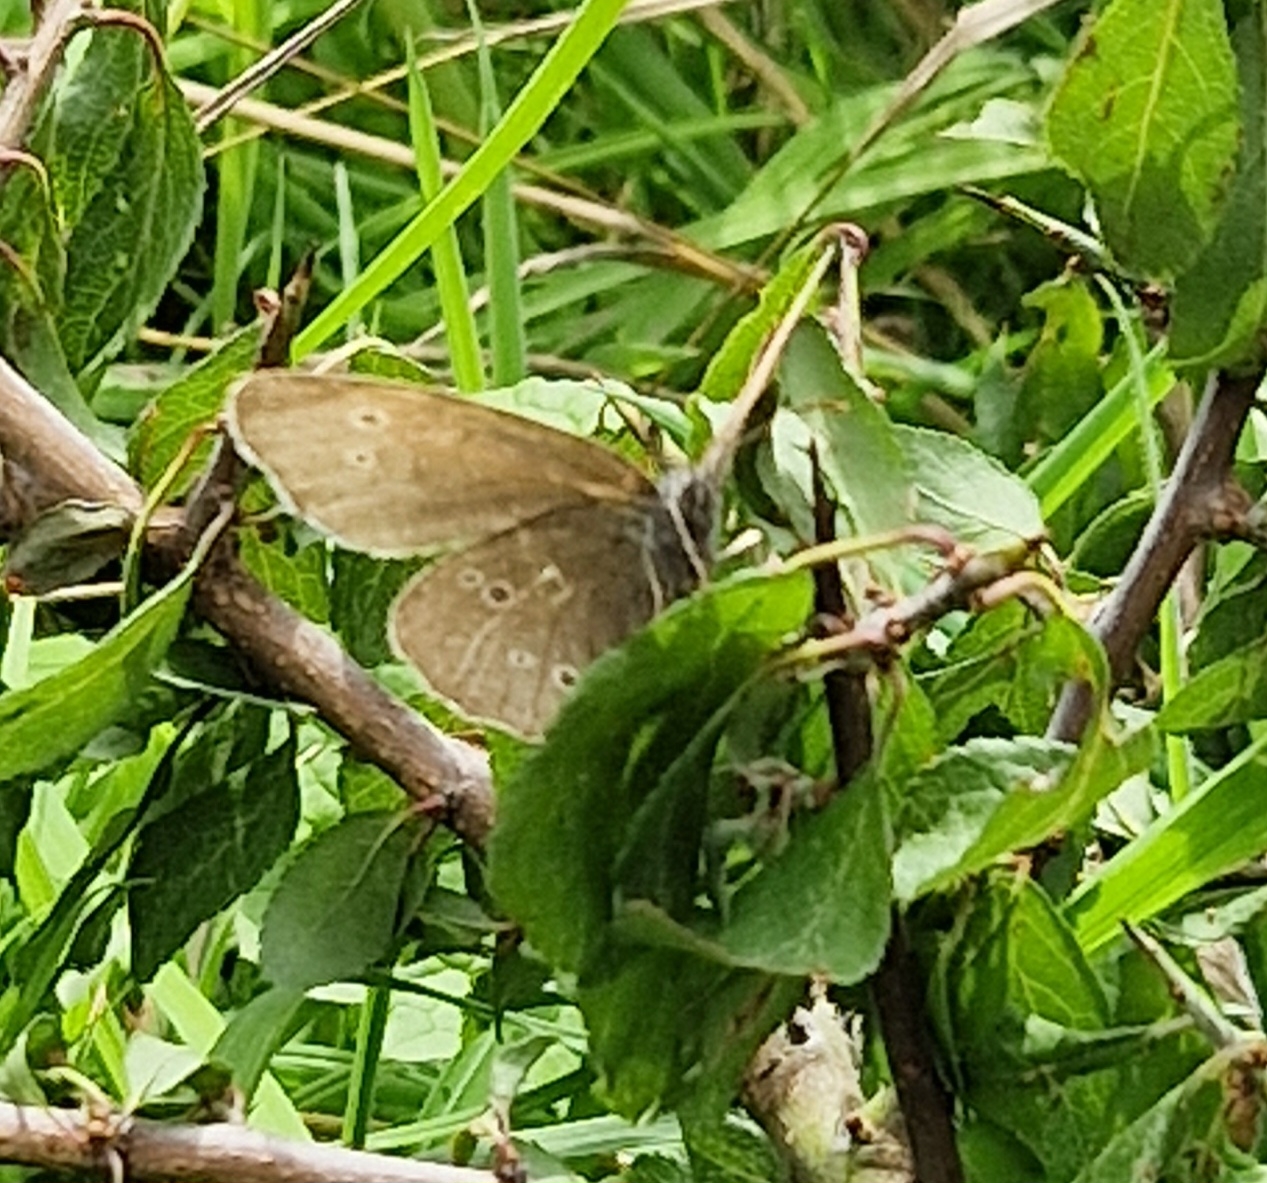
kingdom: Animalia
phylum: Arthropoda
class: Insecta
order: Lepidoptera
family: Nymphalidae
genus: Aphantopus
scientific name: Aphantopus hyperantus
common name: Engrandøje
